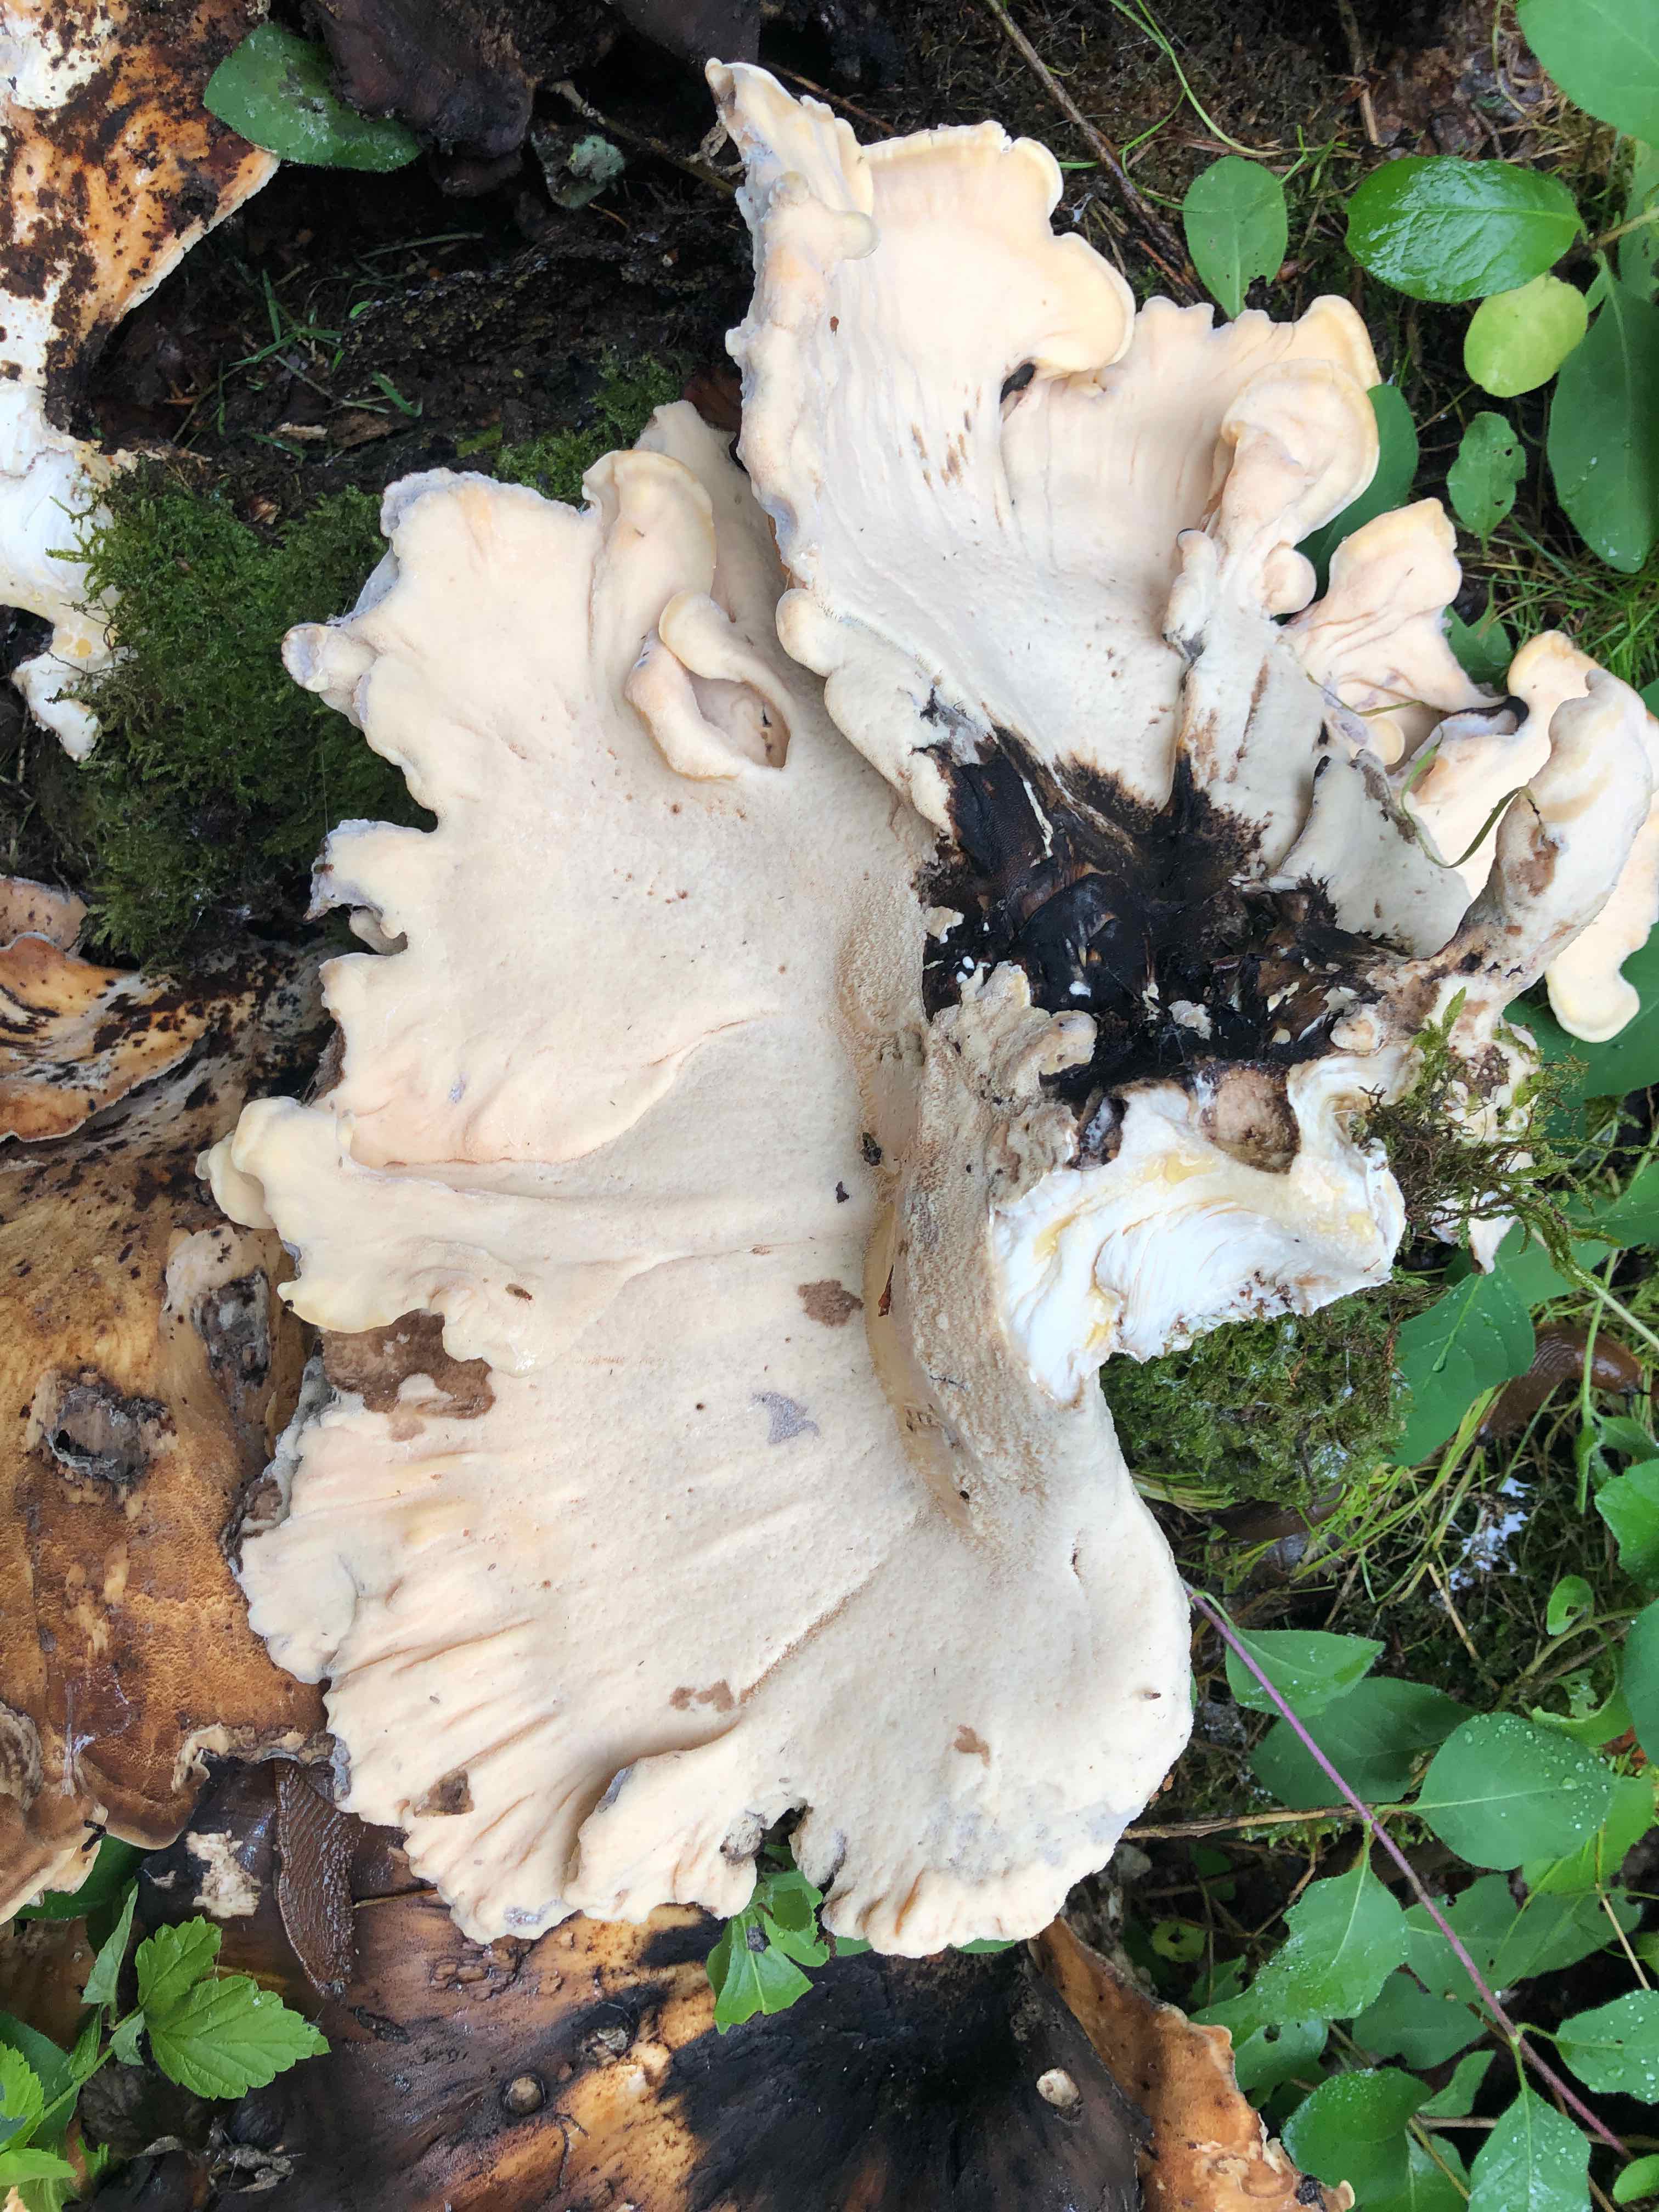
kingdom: Fungi
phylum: Basidiomycota
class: Agaricomycetes
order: Polyporales
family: Meripilaceae
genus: Meripilus
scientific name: Meripilus giganteus
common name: kæmpeporesvamp
